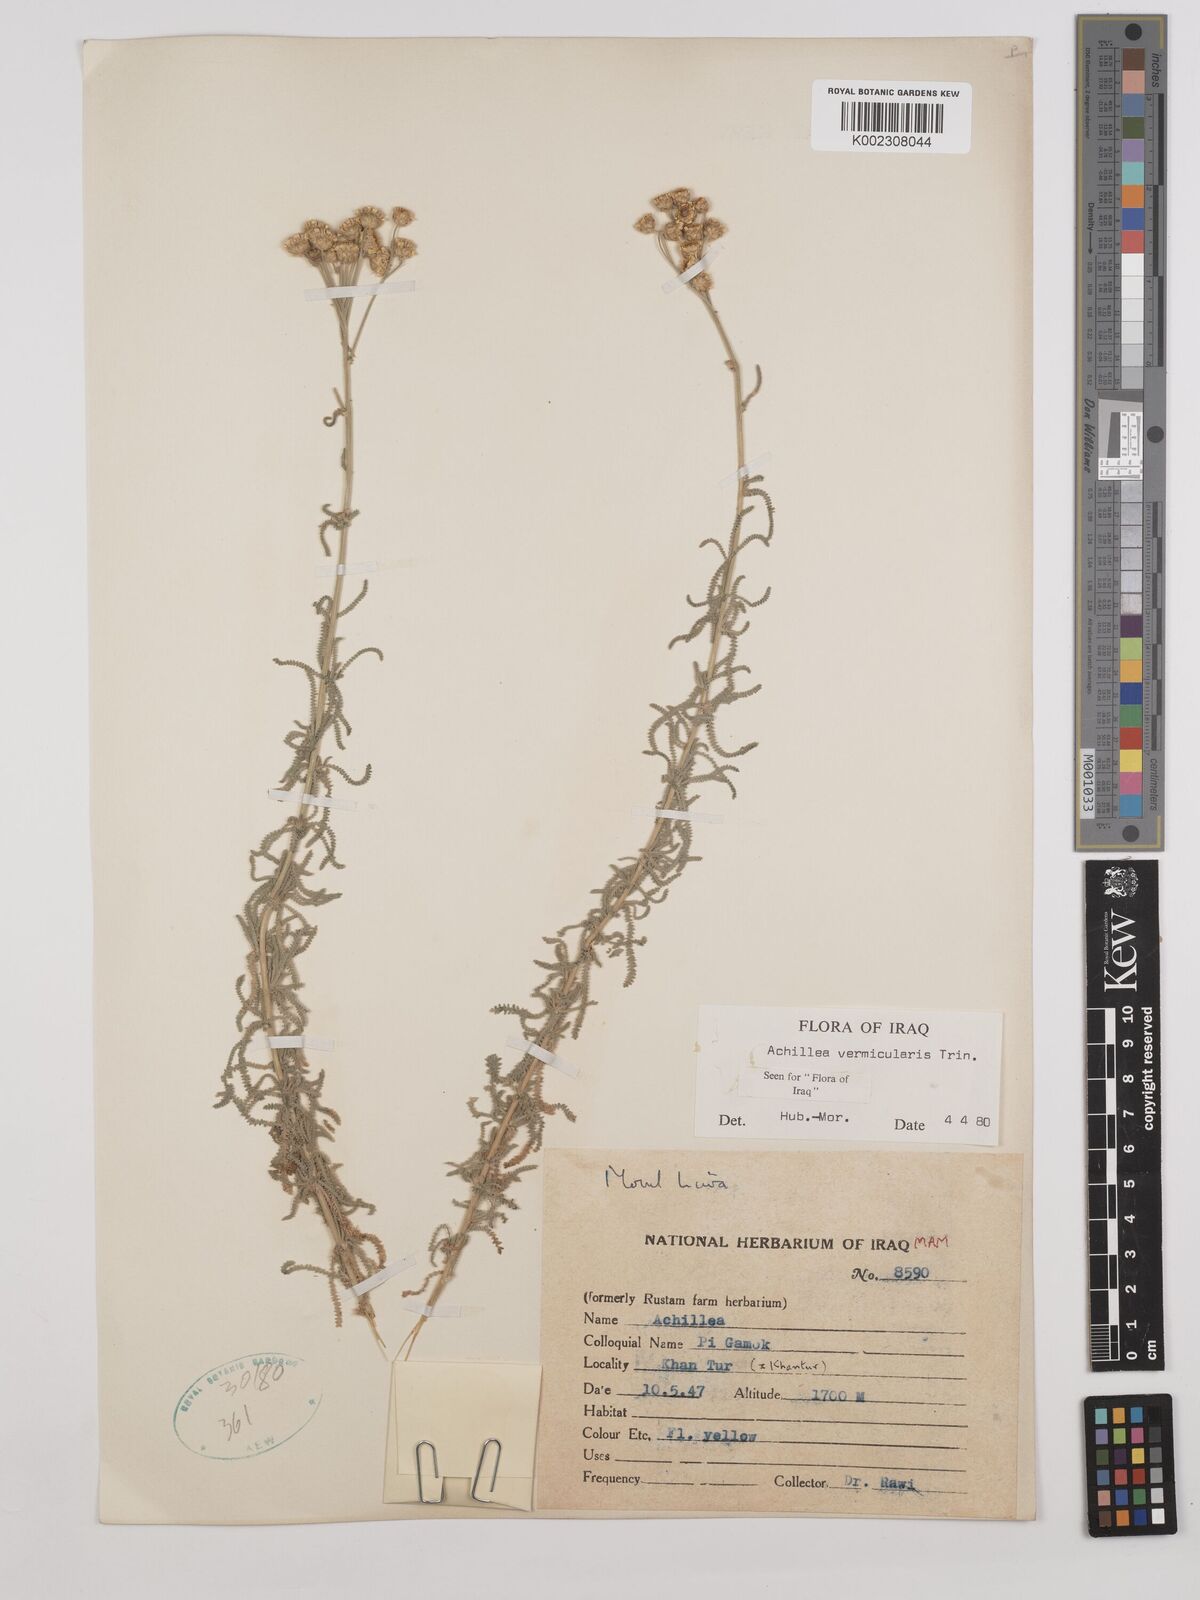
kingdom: Plantae
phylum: Tracheophyta
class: Magnoliopsida
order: Asterales
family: Asteraceae
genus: Achillea
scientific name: Achillea vermicularis
